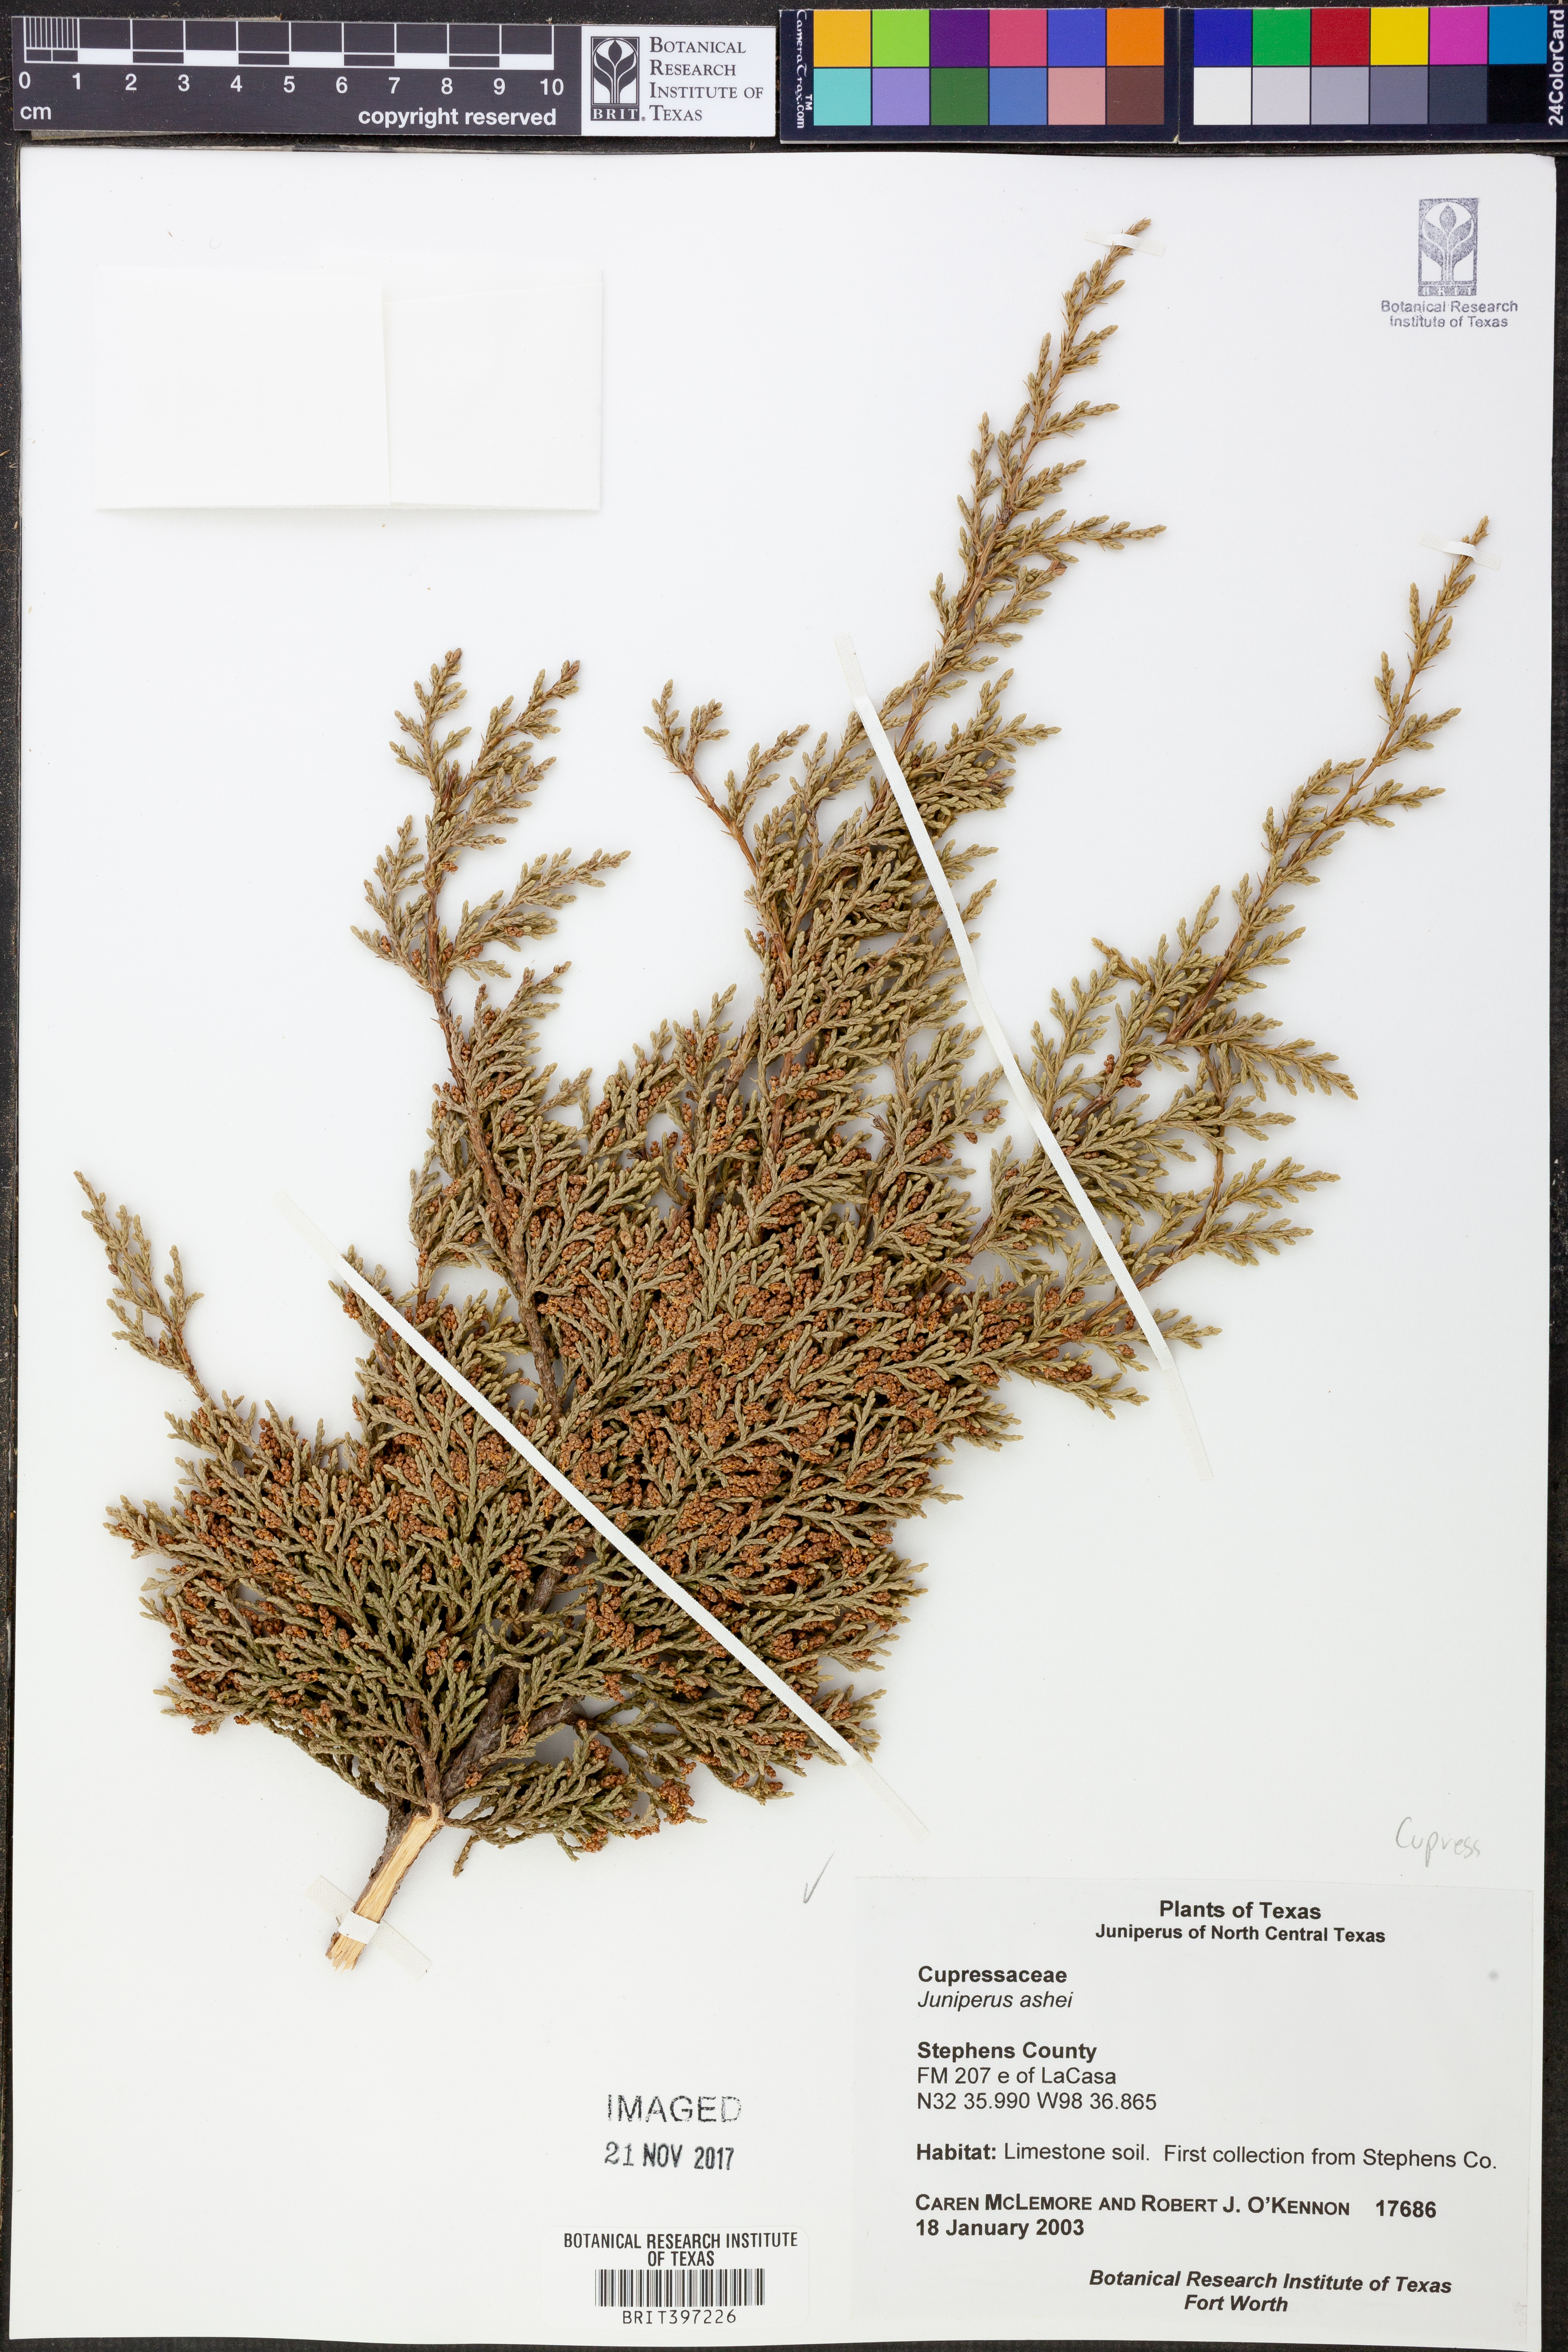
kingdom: Plantae
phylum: Tracheophyta
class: Pinopsida
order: Pinales
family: Cupressaceae
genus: Juniperus
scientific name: Juniperus ashei
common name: Mexican juniper
